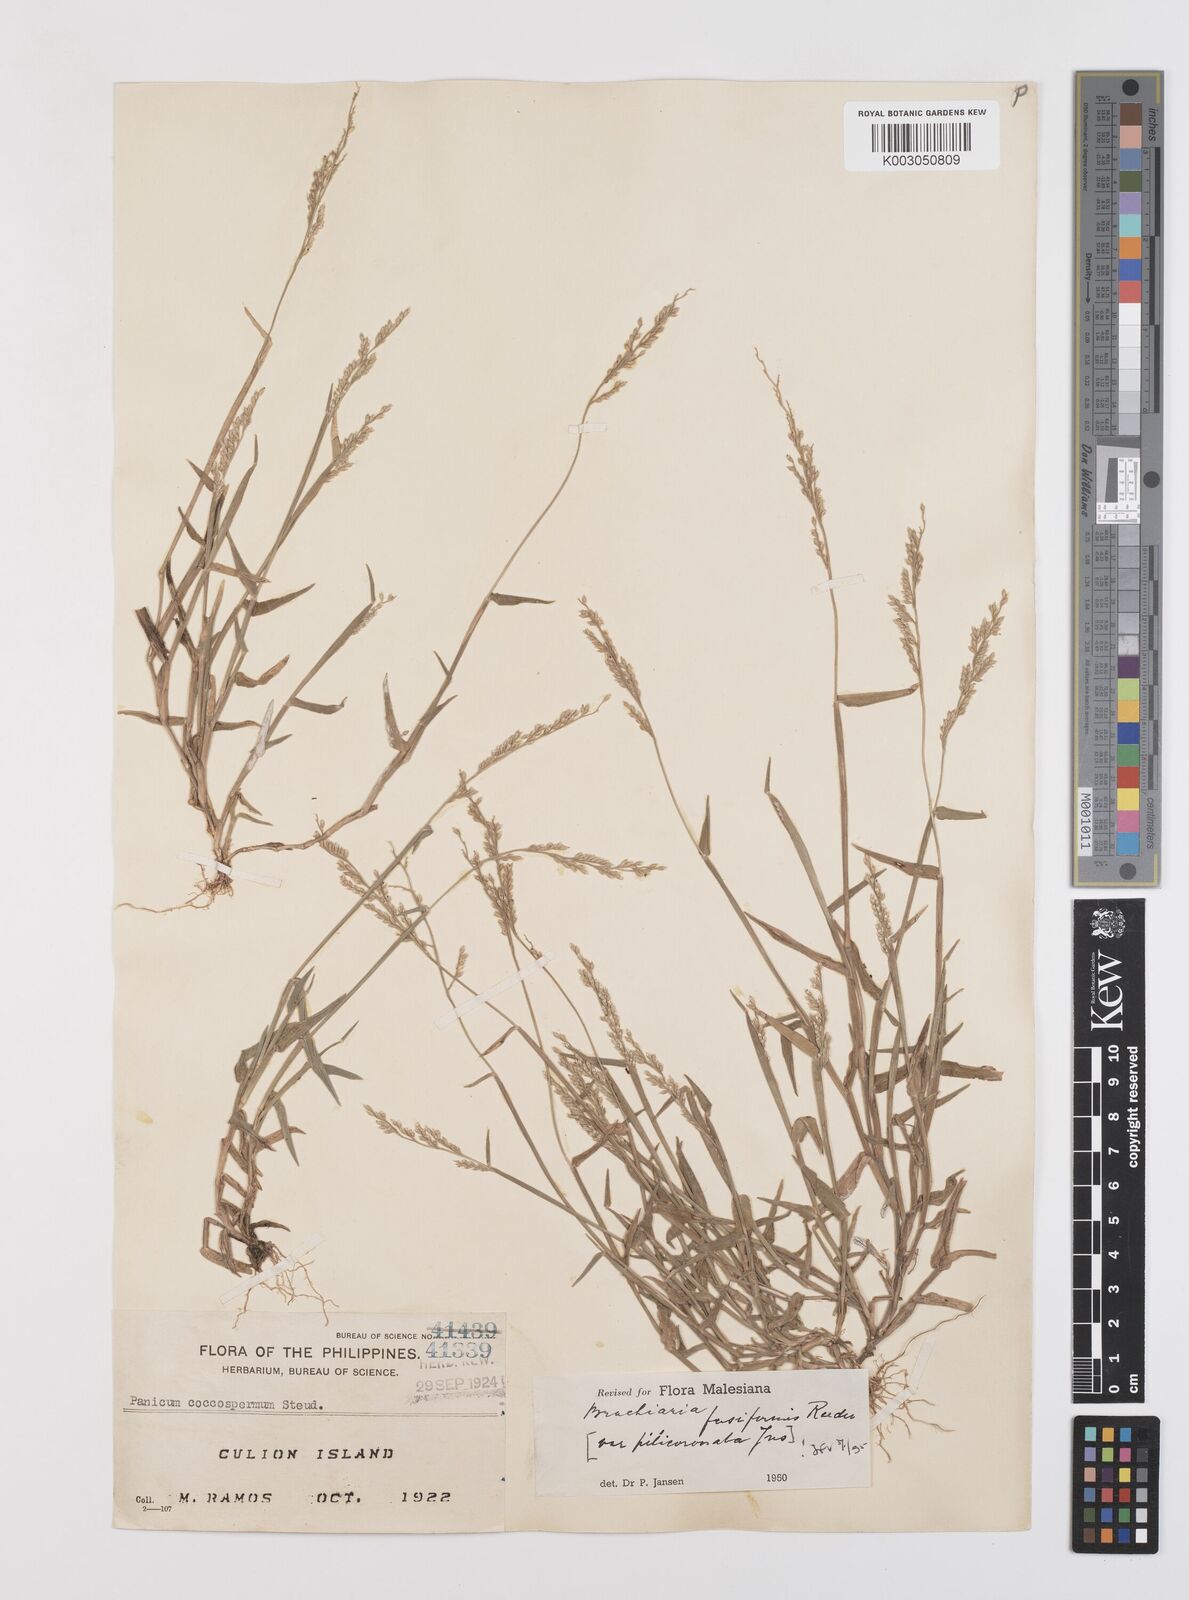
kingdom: Plantae
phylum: Tracheophyta
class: Liliopsida
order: Poales
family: Poaceae
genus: Urochloa
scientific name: Urochloa fusiformis
